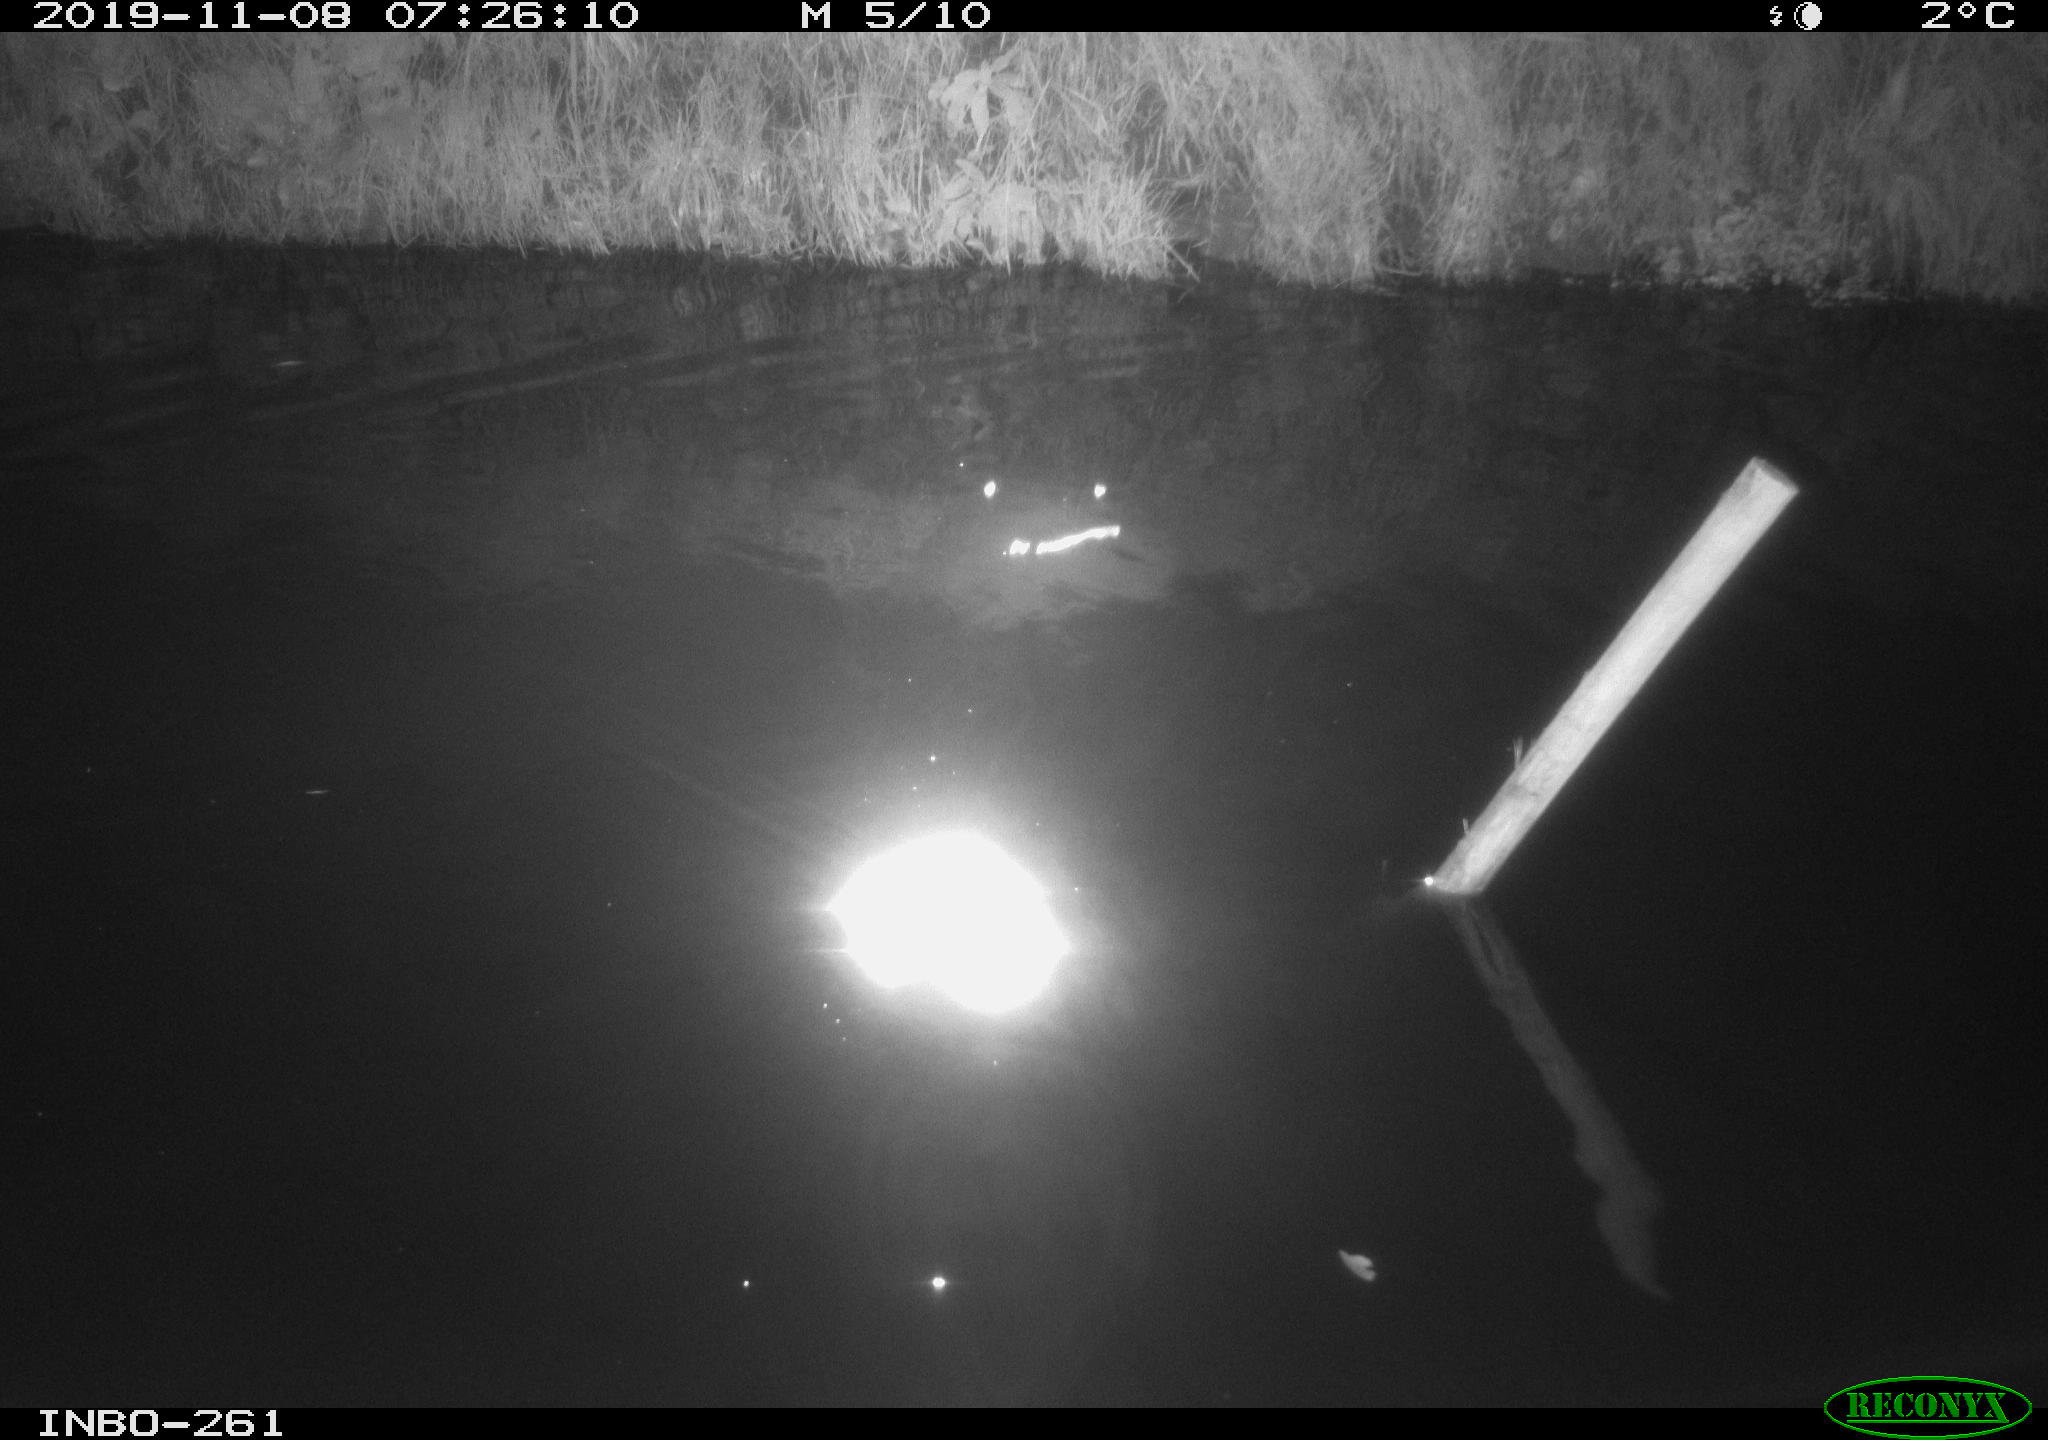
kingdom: Animalia
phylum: Chordata
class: Aves
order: Anseriformes
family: Anatidae
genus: Anas
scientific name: Anas platyrhynchos
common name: Mallard
